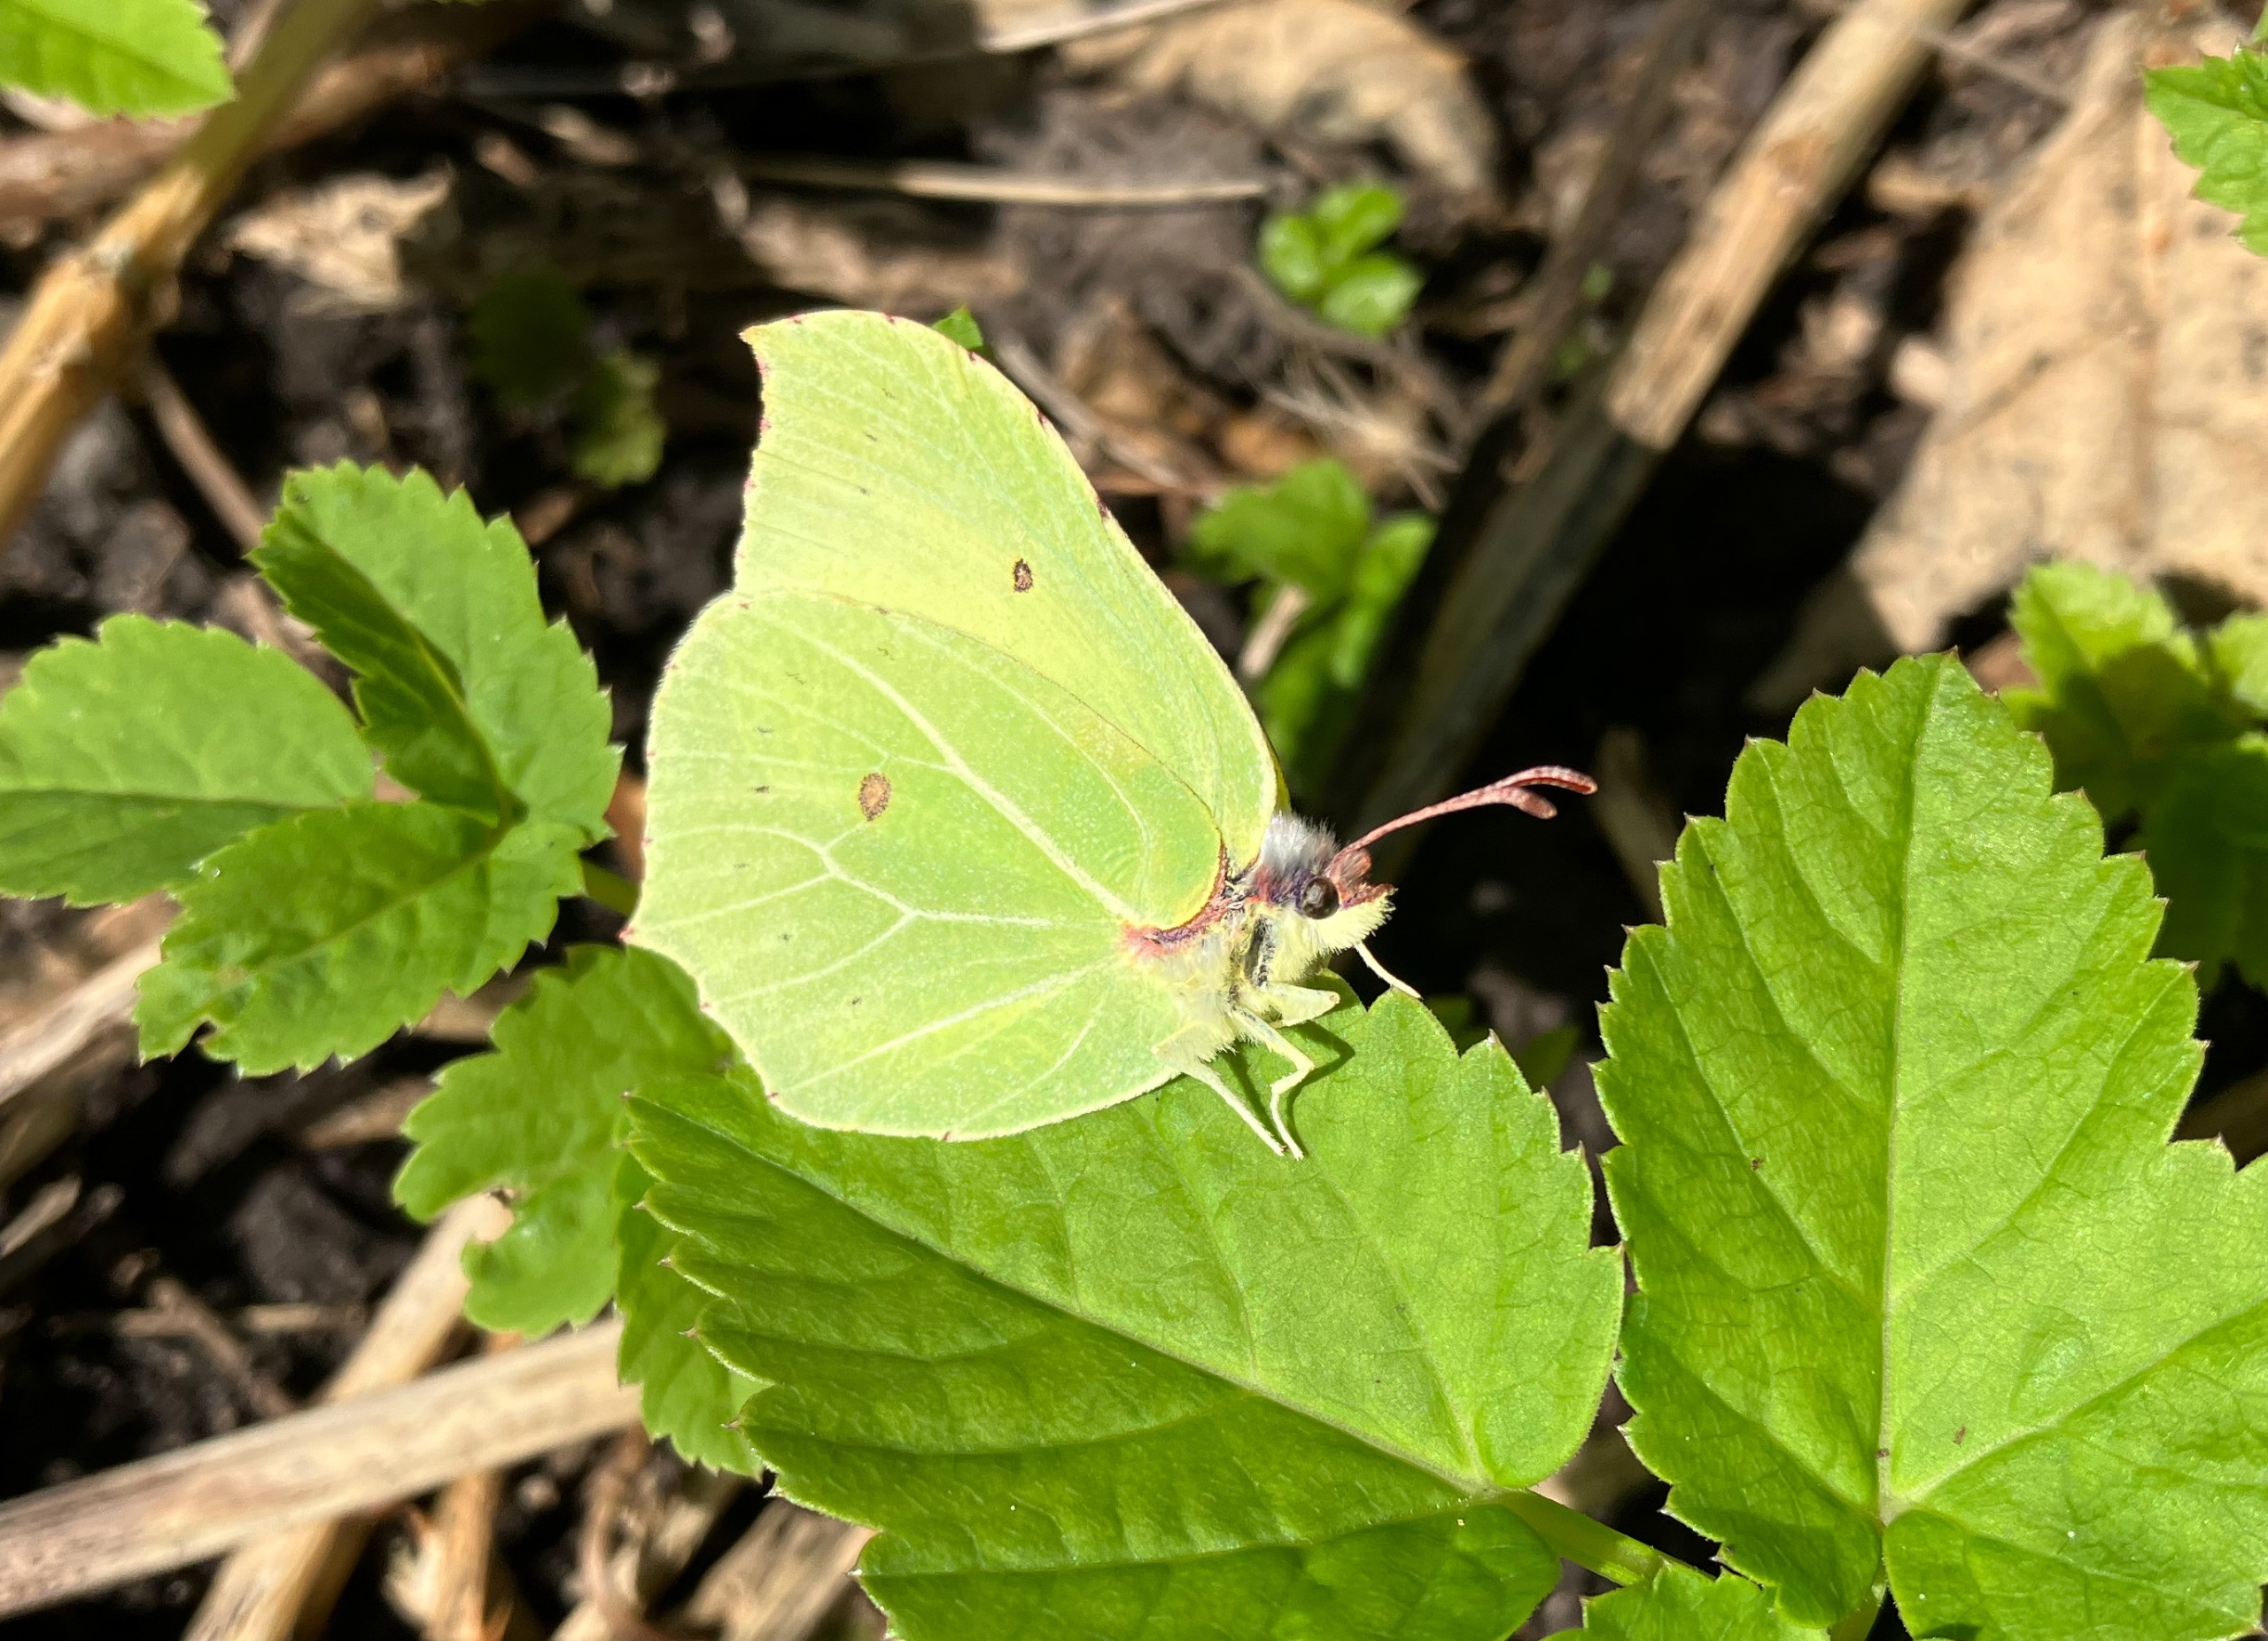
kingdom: Animalia
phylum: Arthropoda
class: Insecta
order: Lepidoptera
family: Pieridae
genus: Gonepteryx
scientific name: Gonepteryx rhamni
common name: Citronsommerfugl
